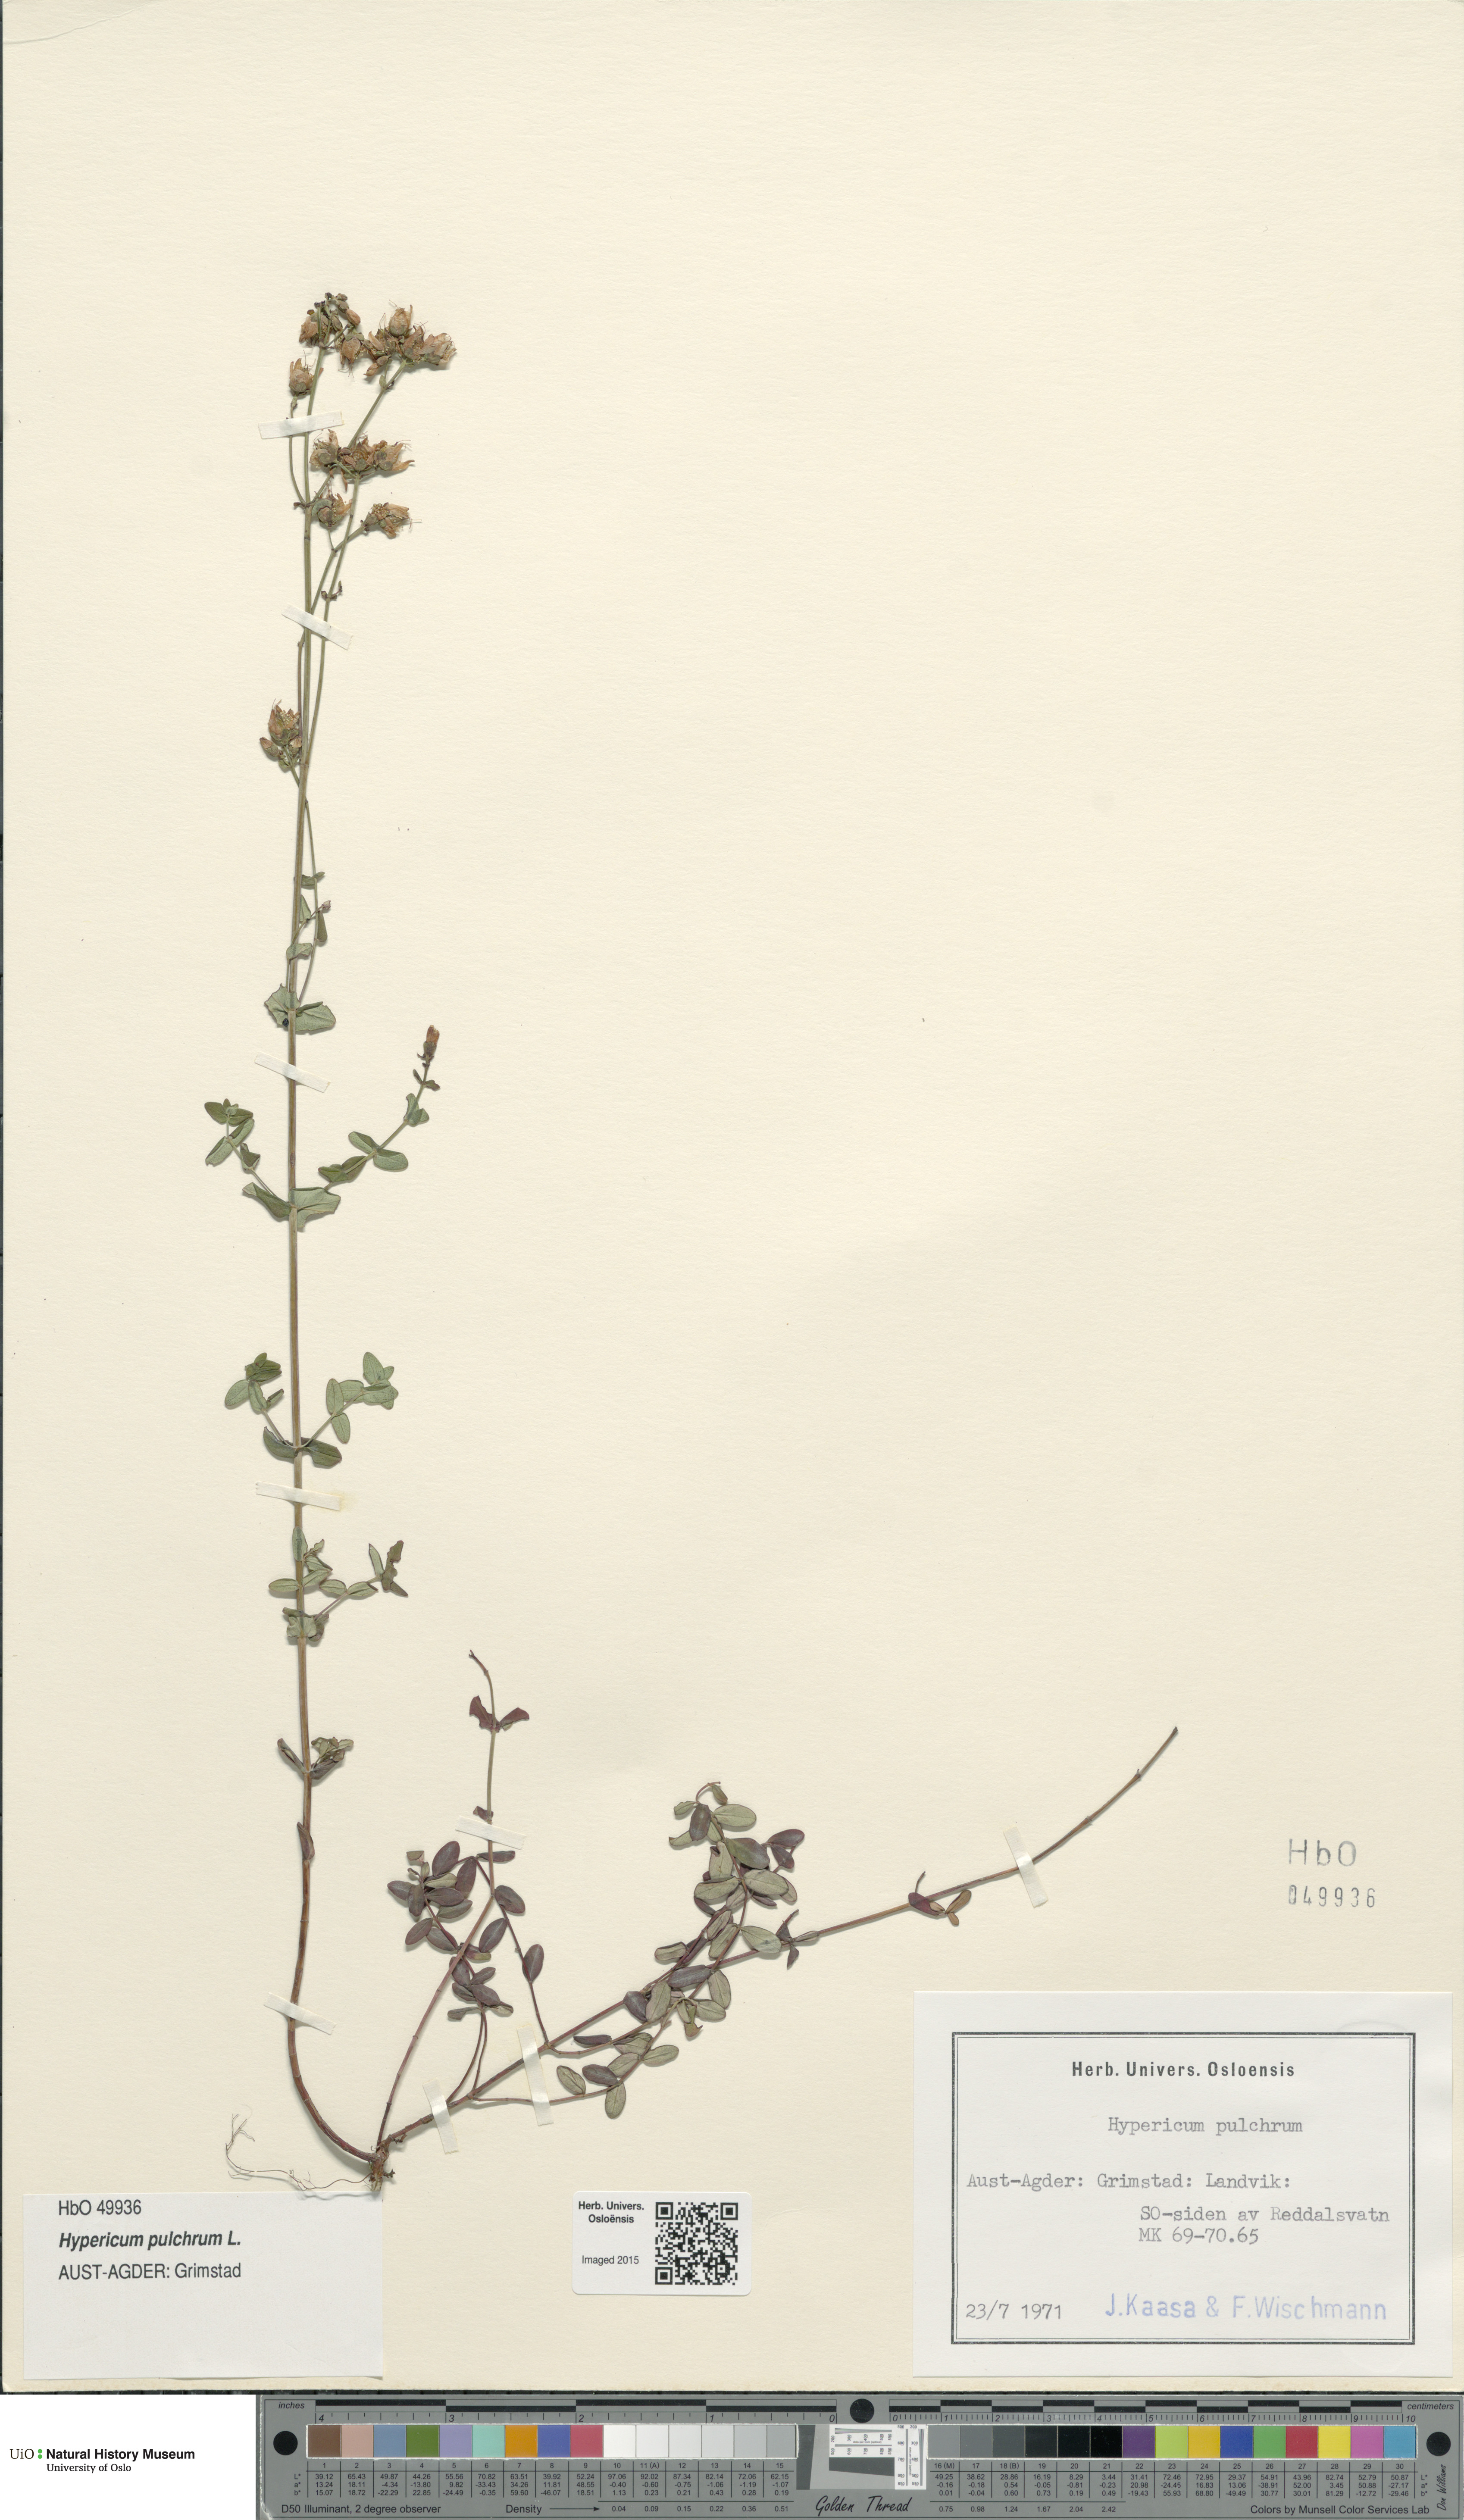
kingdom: Plantae
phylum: Tracheophyta
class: Magnoliopsida
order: Malpighiales
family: Hypericaceae
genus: Hypericum
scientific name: Hypericum pulchrum
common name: Slender st. john's-wort
